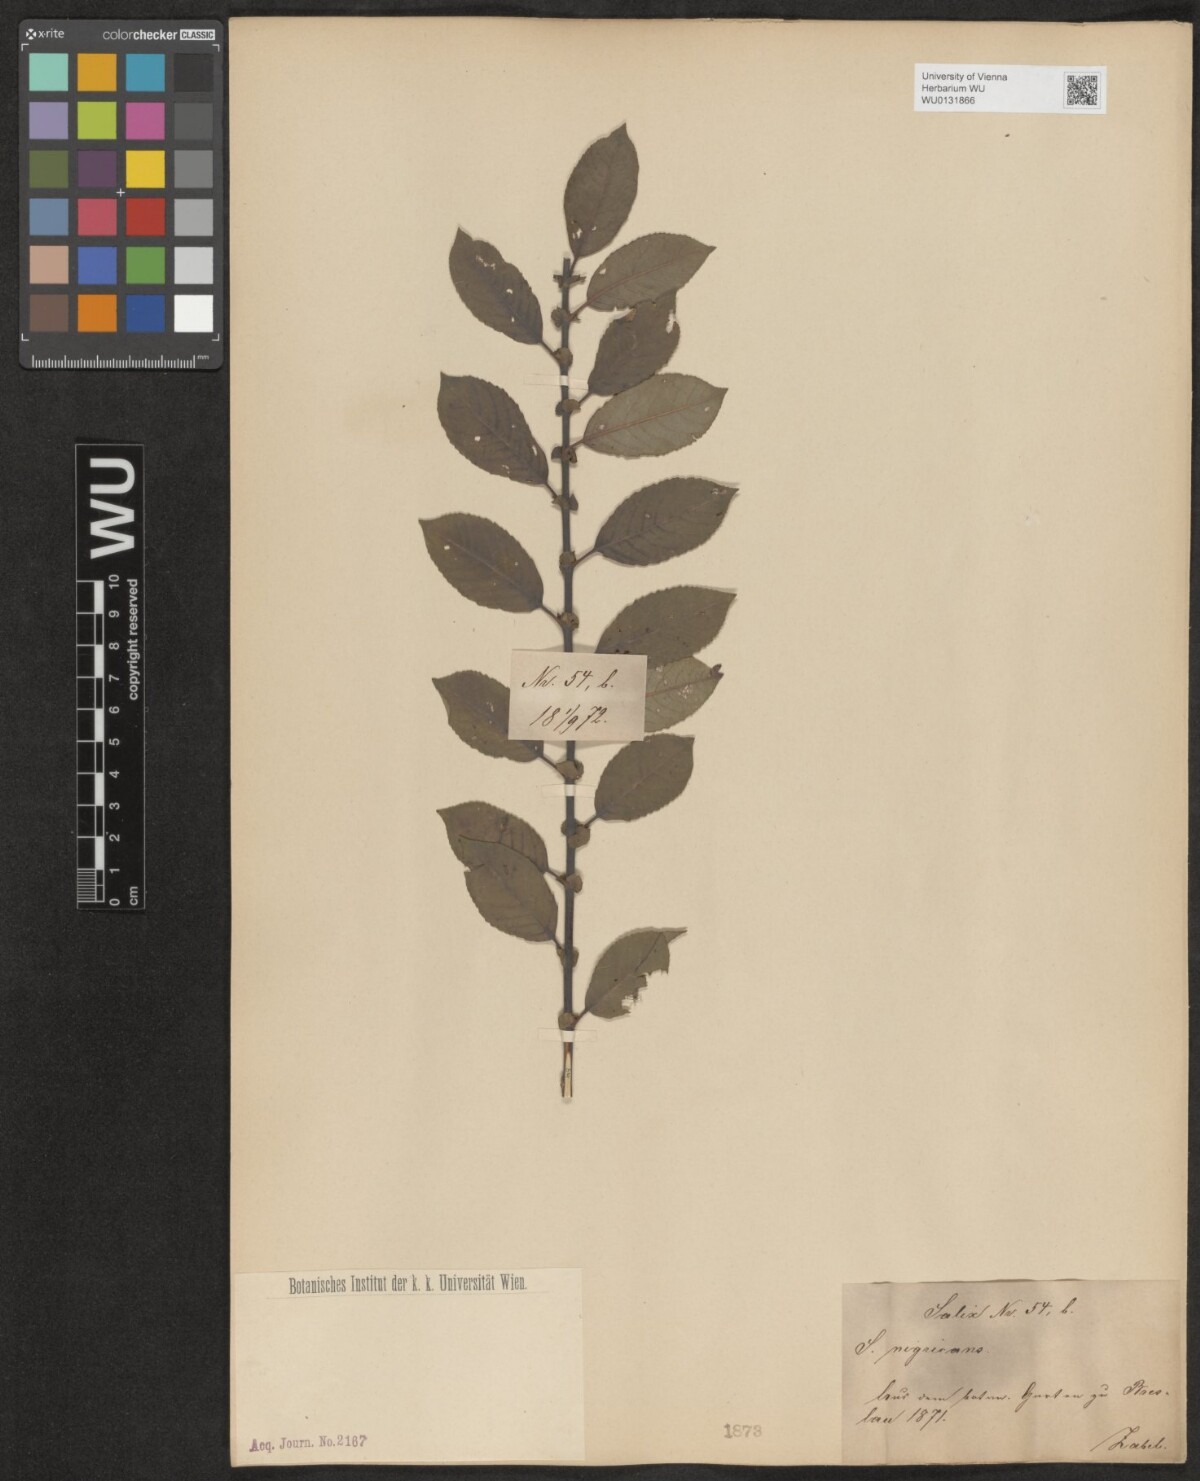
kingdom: Plantae
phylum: Tracheophyta
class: Magnoliopsida
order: Malpighiales
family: Salicaceae
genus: Salix
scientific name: Salix myrsinifolia
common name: Dark-leaved willow
